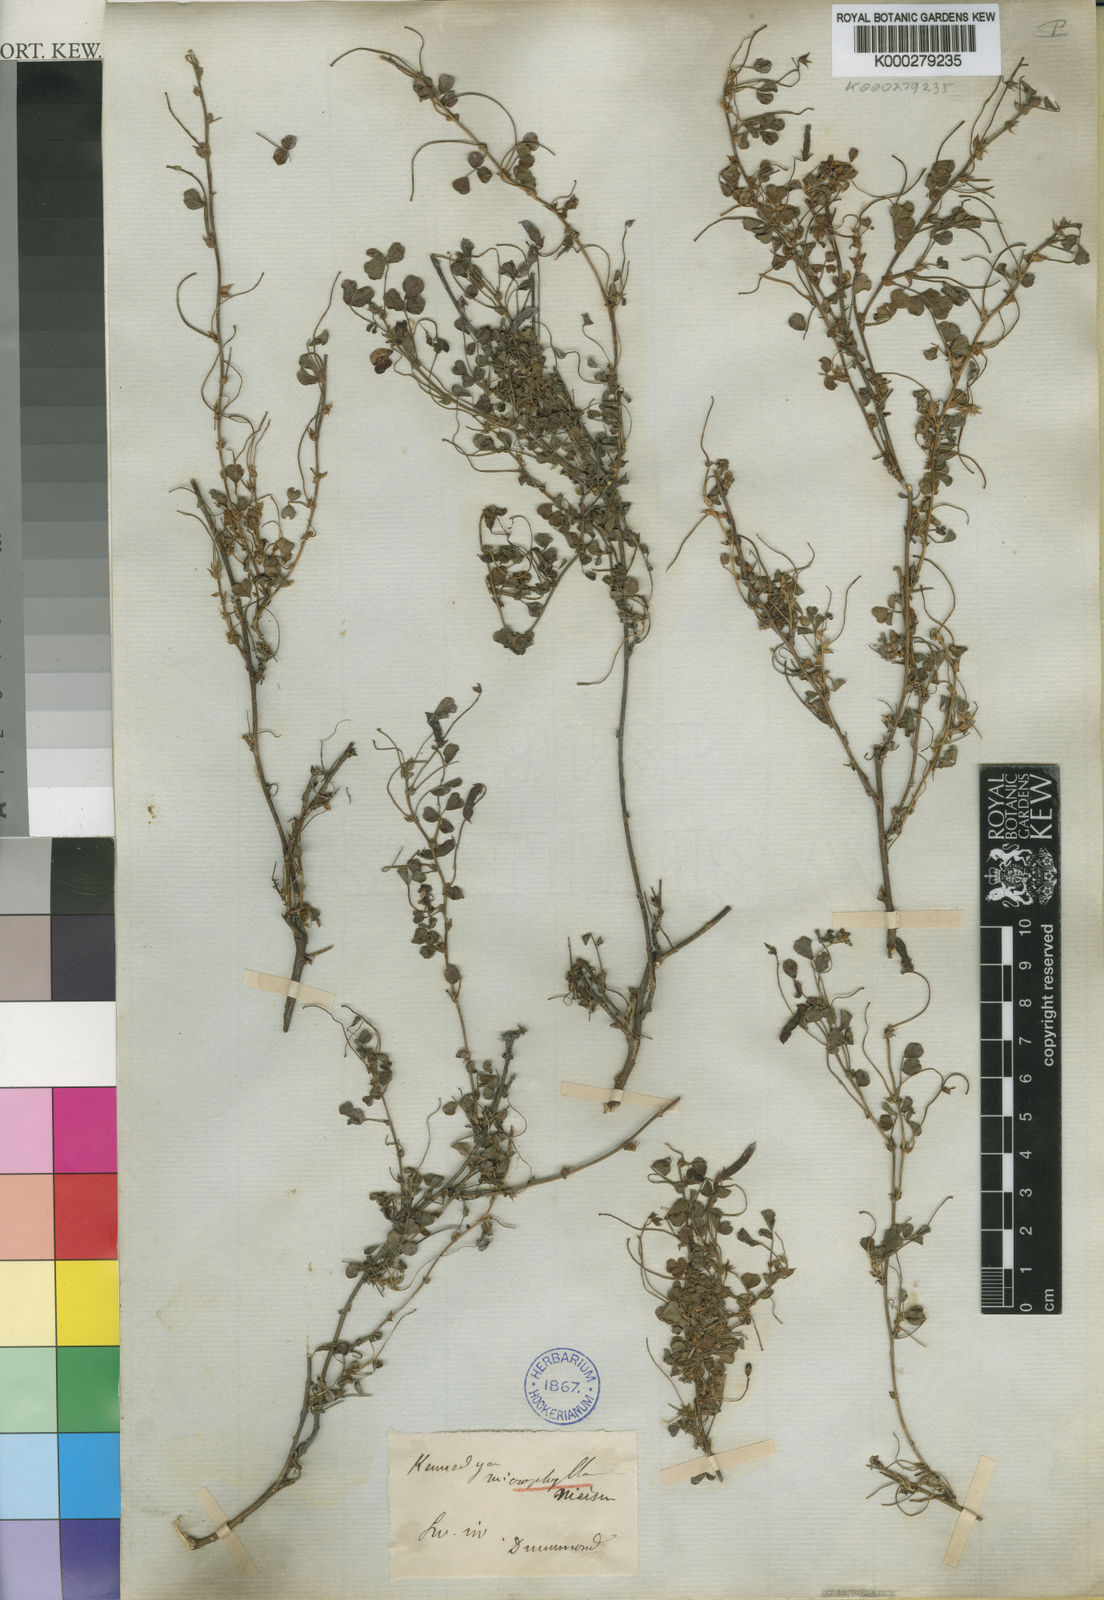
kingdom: Plantae
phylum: Tracheophyta
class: Magnoliopsida
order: Fabales
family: Fabaceae
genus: Kennedia
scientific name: Kennedia microphylla
